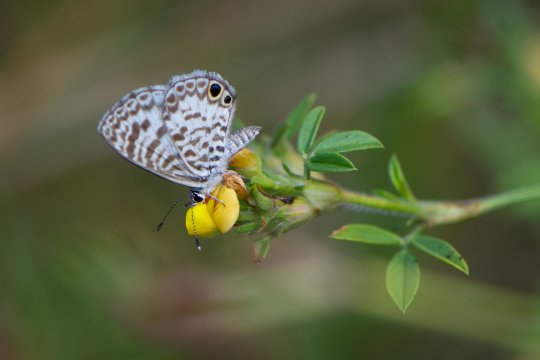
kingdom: Animalia
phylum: Arthropoda
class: Insecta
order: Lepidoptera
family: Lycaenidae
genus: Leptotes
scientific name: Leptotes cassius
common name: Cassius Blue
